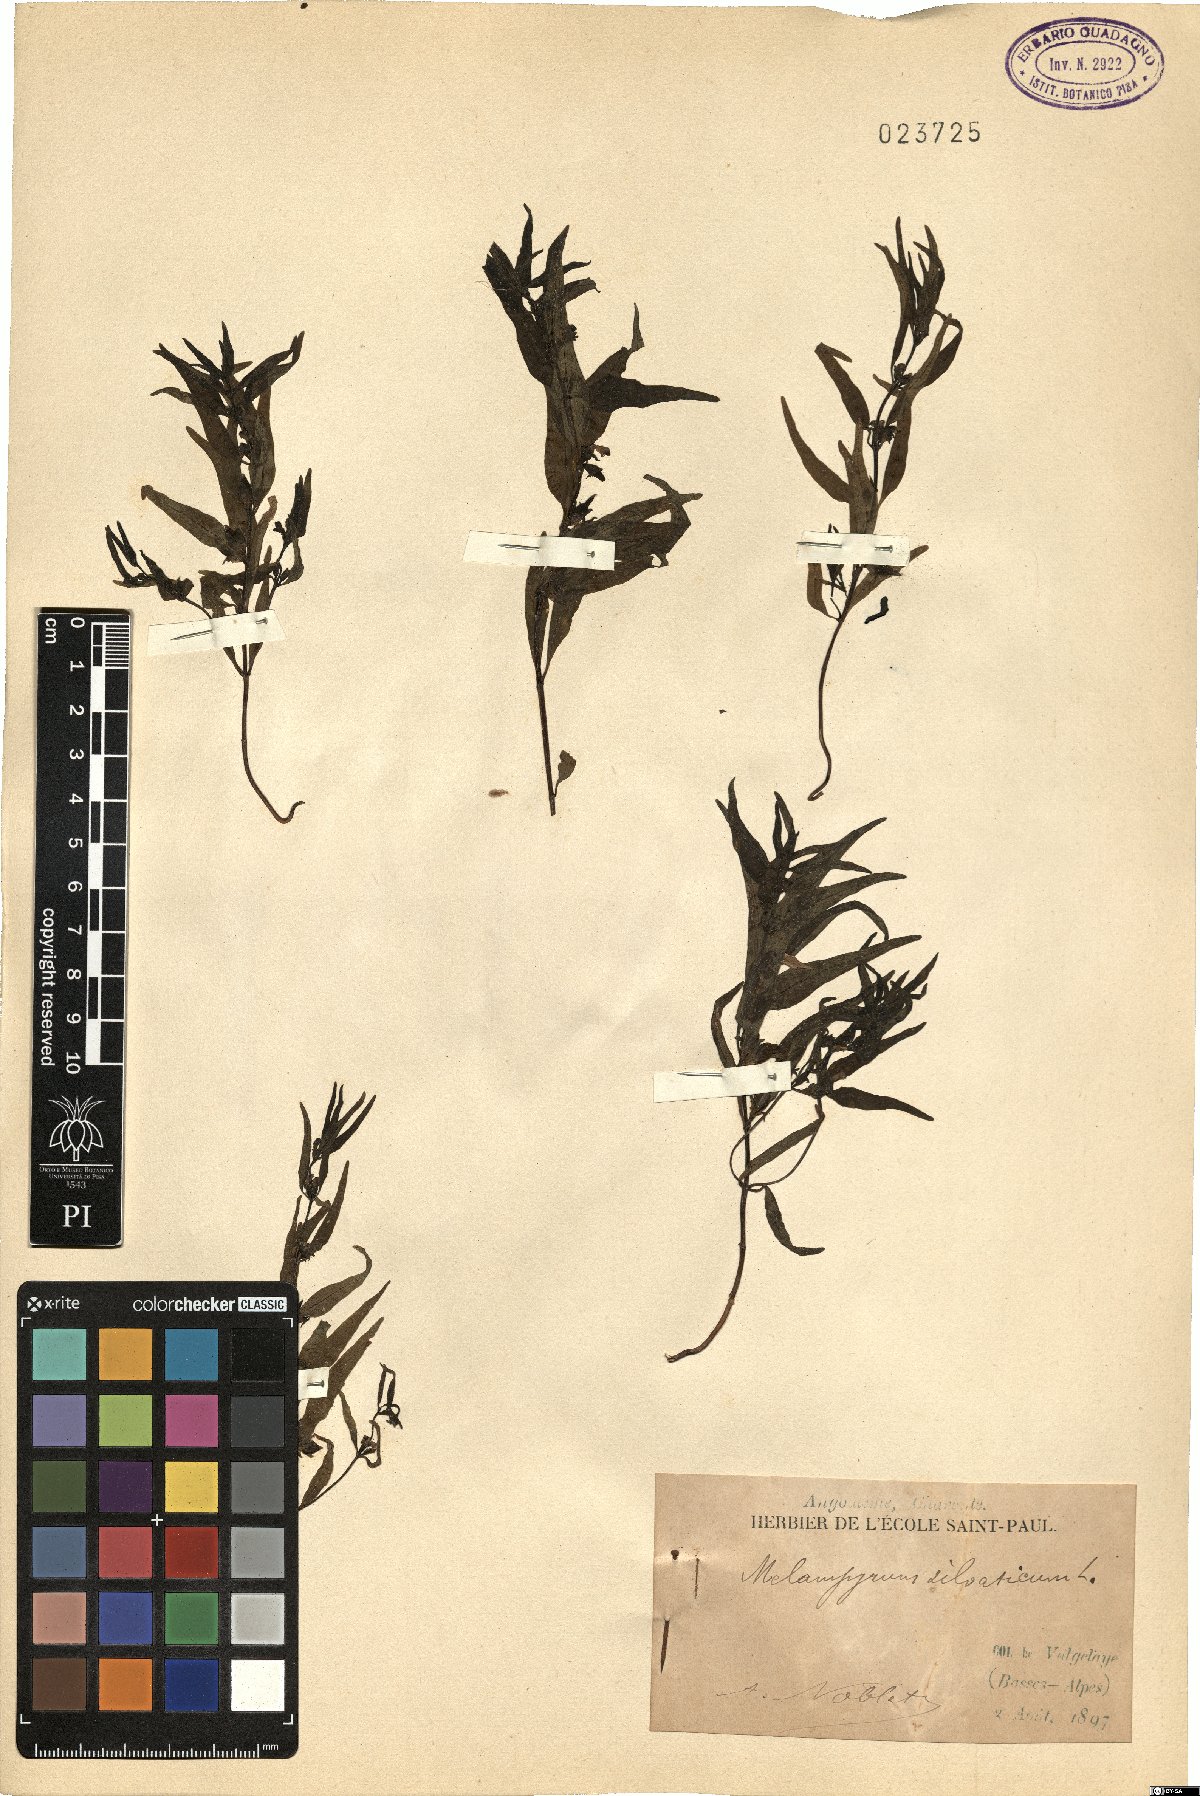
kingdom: Plantae
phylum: Tracheophyta
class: Magnoliopsida
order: Lamiales
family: Orobanchaceae
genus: Melampyrum
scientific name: Melampyrum sylvaticum
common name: Small cow-wheat
